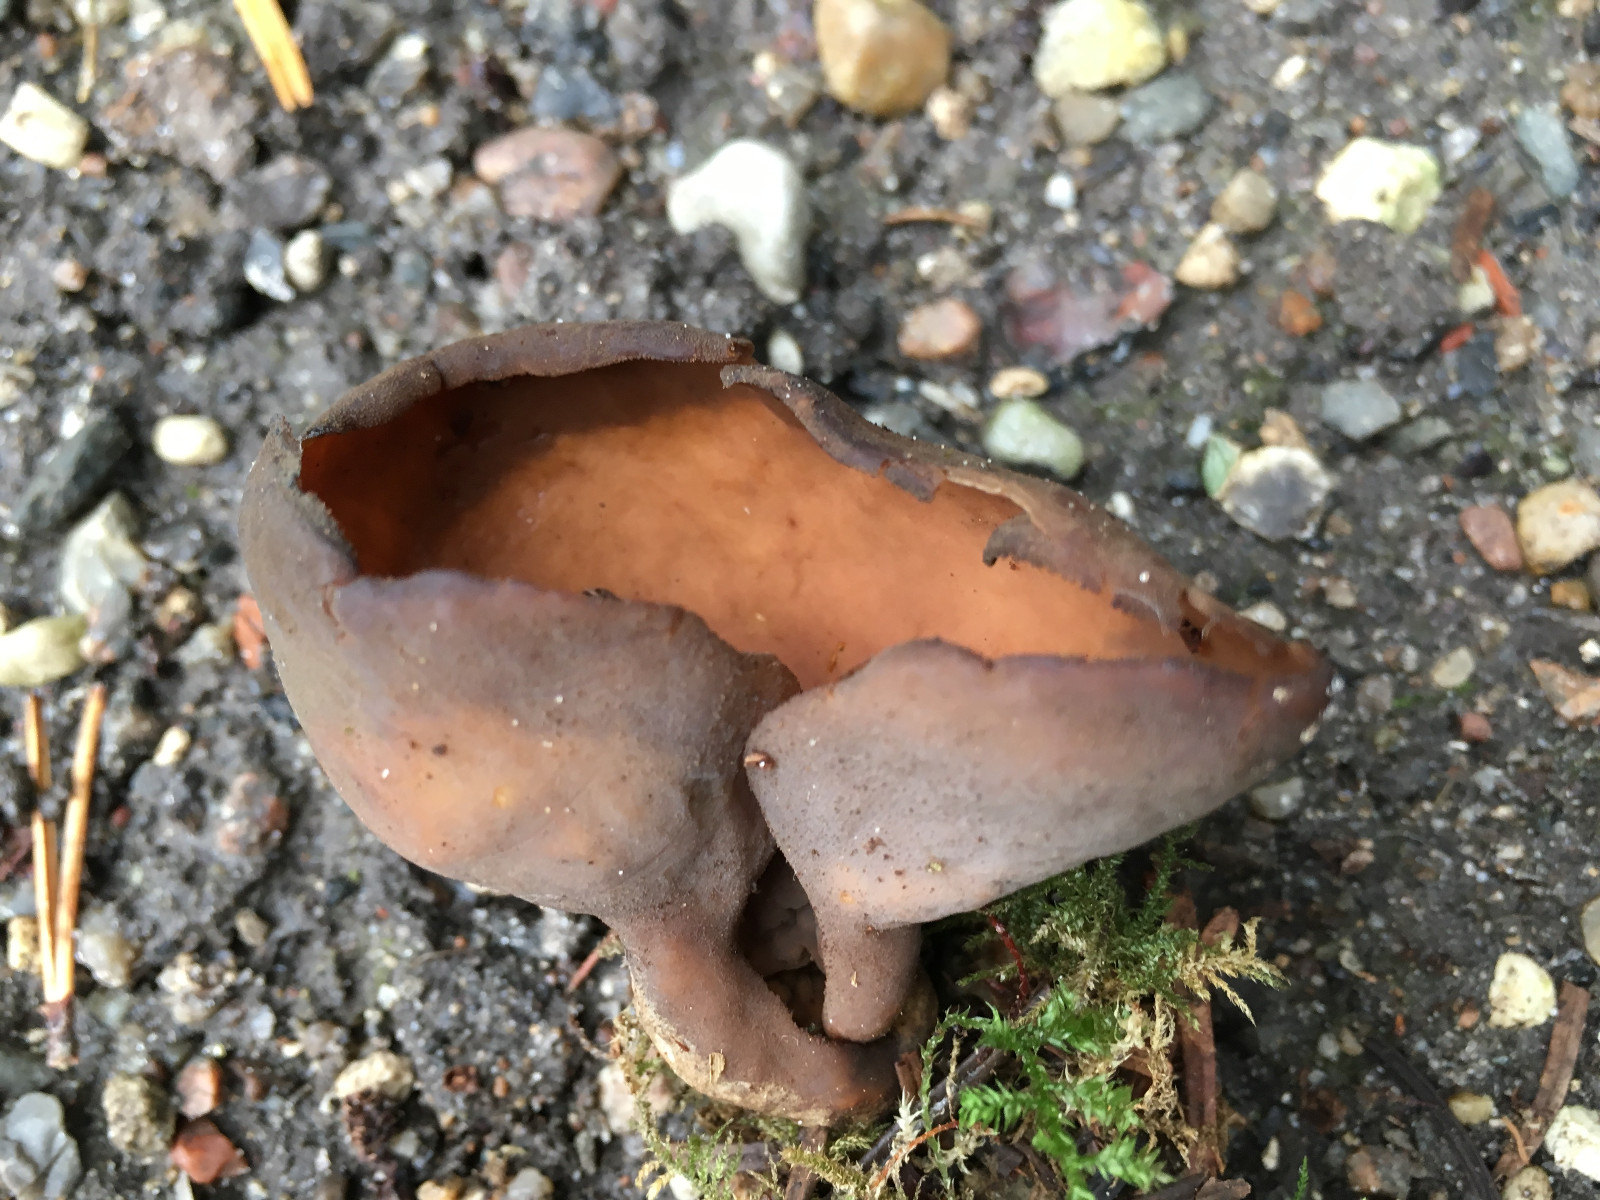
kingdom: Fungi
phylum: Ascomycota
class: Pezizomycetes
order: Pezizales
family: Otideaceae
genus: Otidea
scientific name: Otidea bufonia
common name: brun ørebæger
